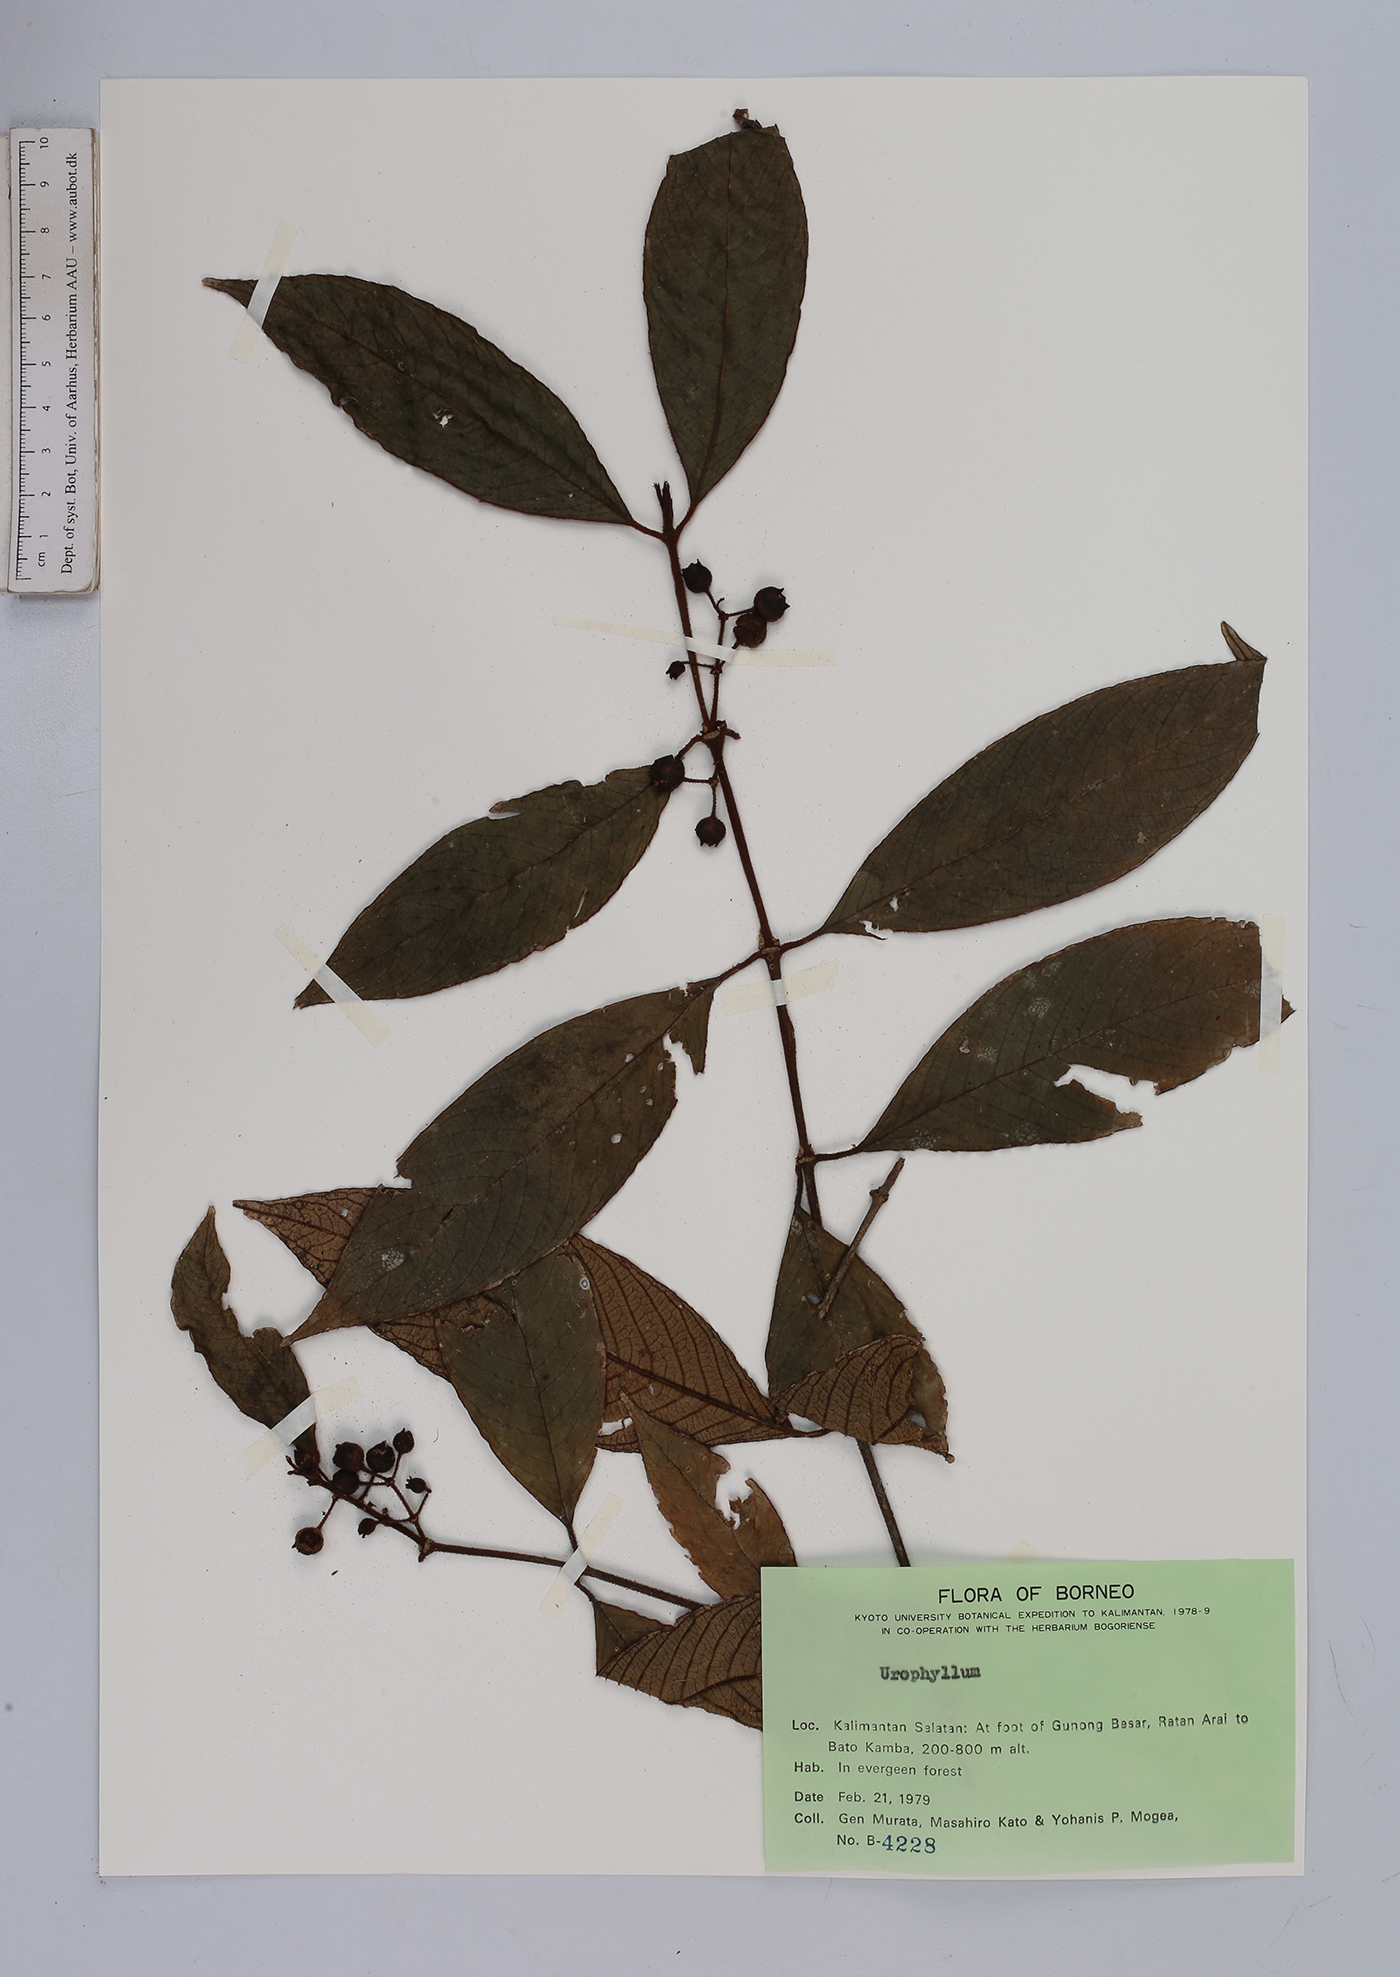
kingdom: Plantae
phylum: Tracheophyta
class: Magnoliopsida
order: Gentianales
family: Rubiaceae
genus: Urophyllum
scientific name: Urophyllum
